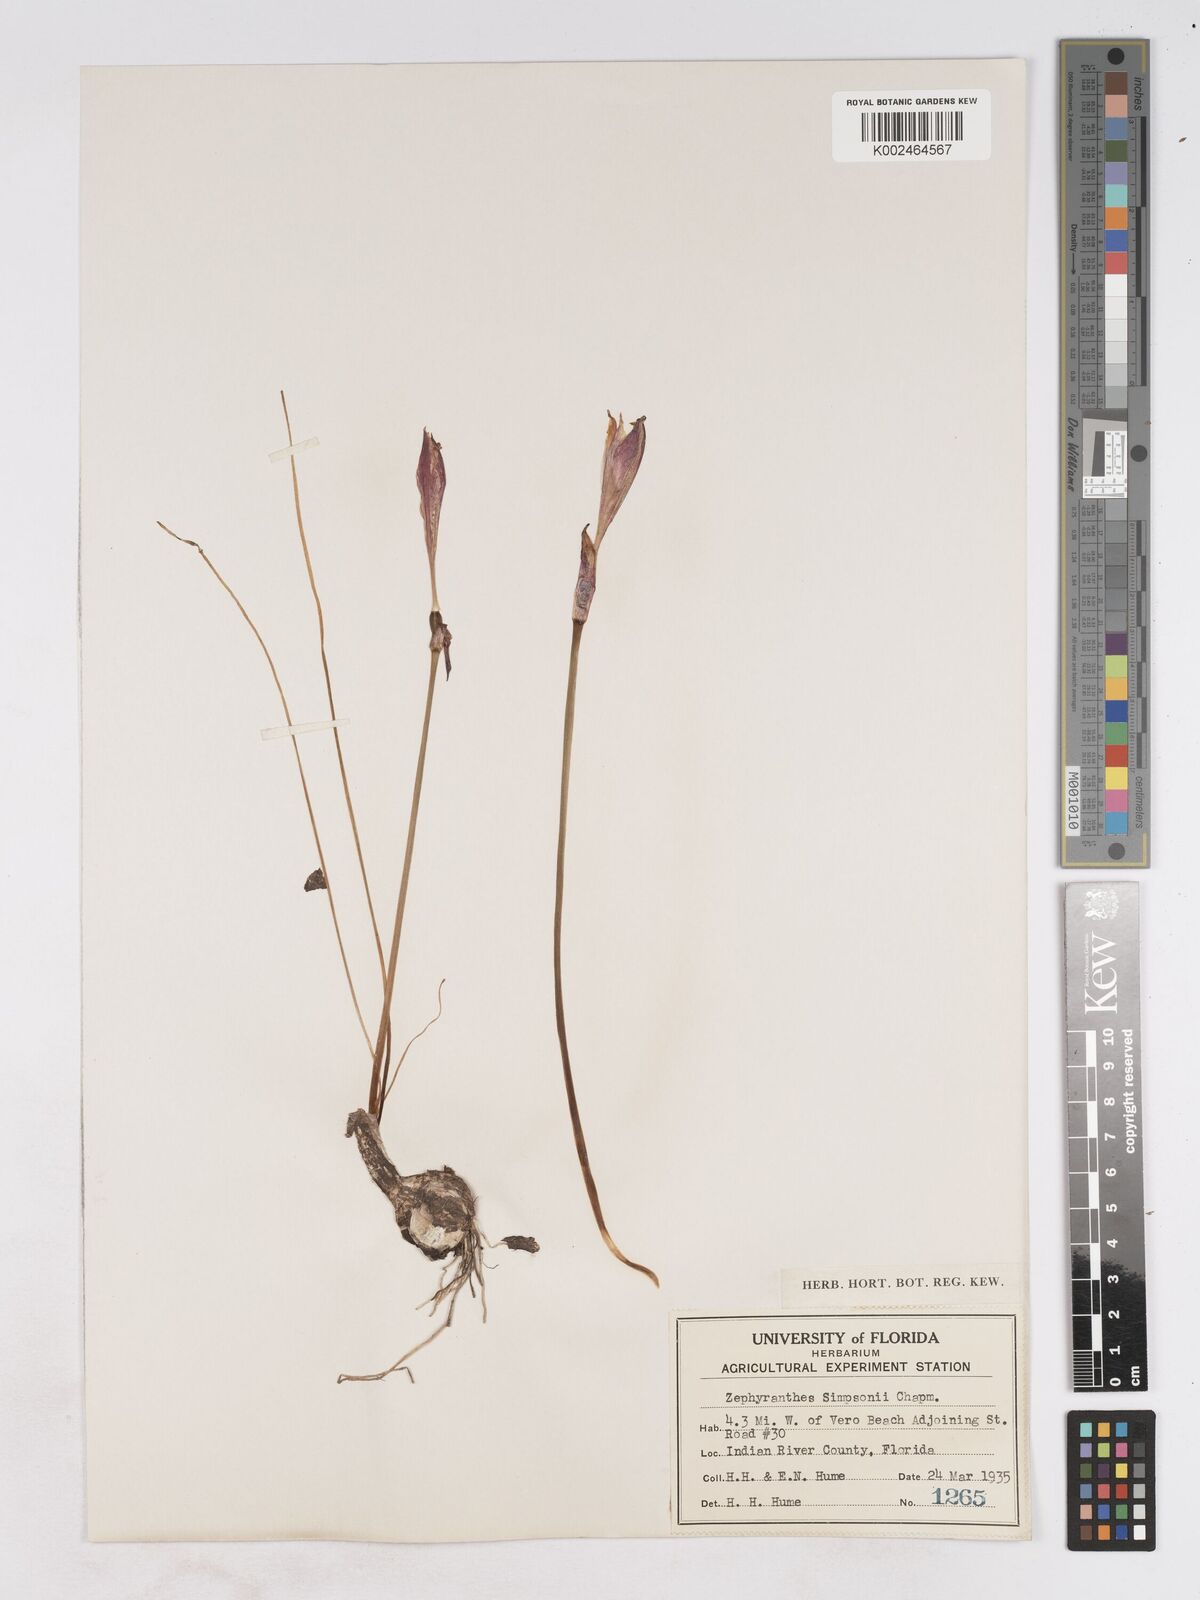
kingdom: Plantae
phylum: Tracheophyta
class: Liliopsida
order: Asparagales
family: Amaryllidaceae
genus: Zephyranthes
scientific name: Zephyranthes simpsonii
